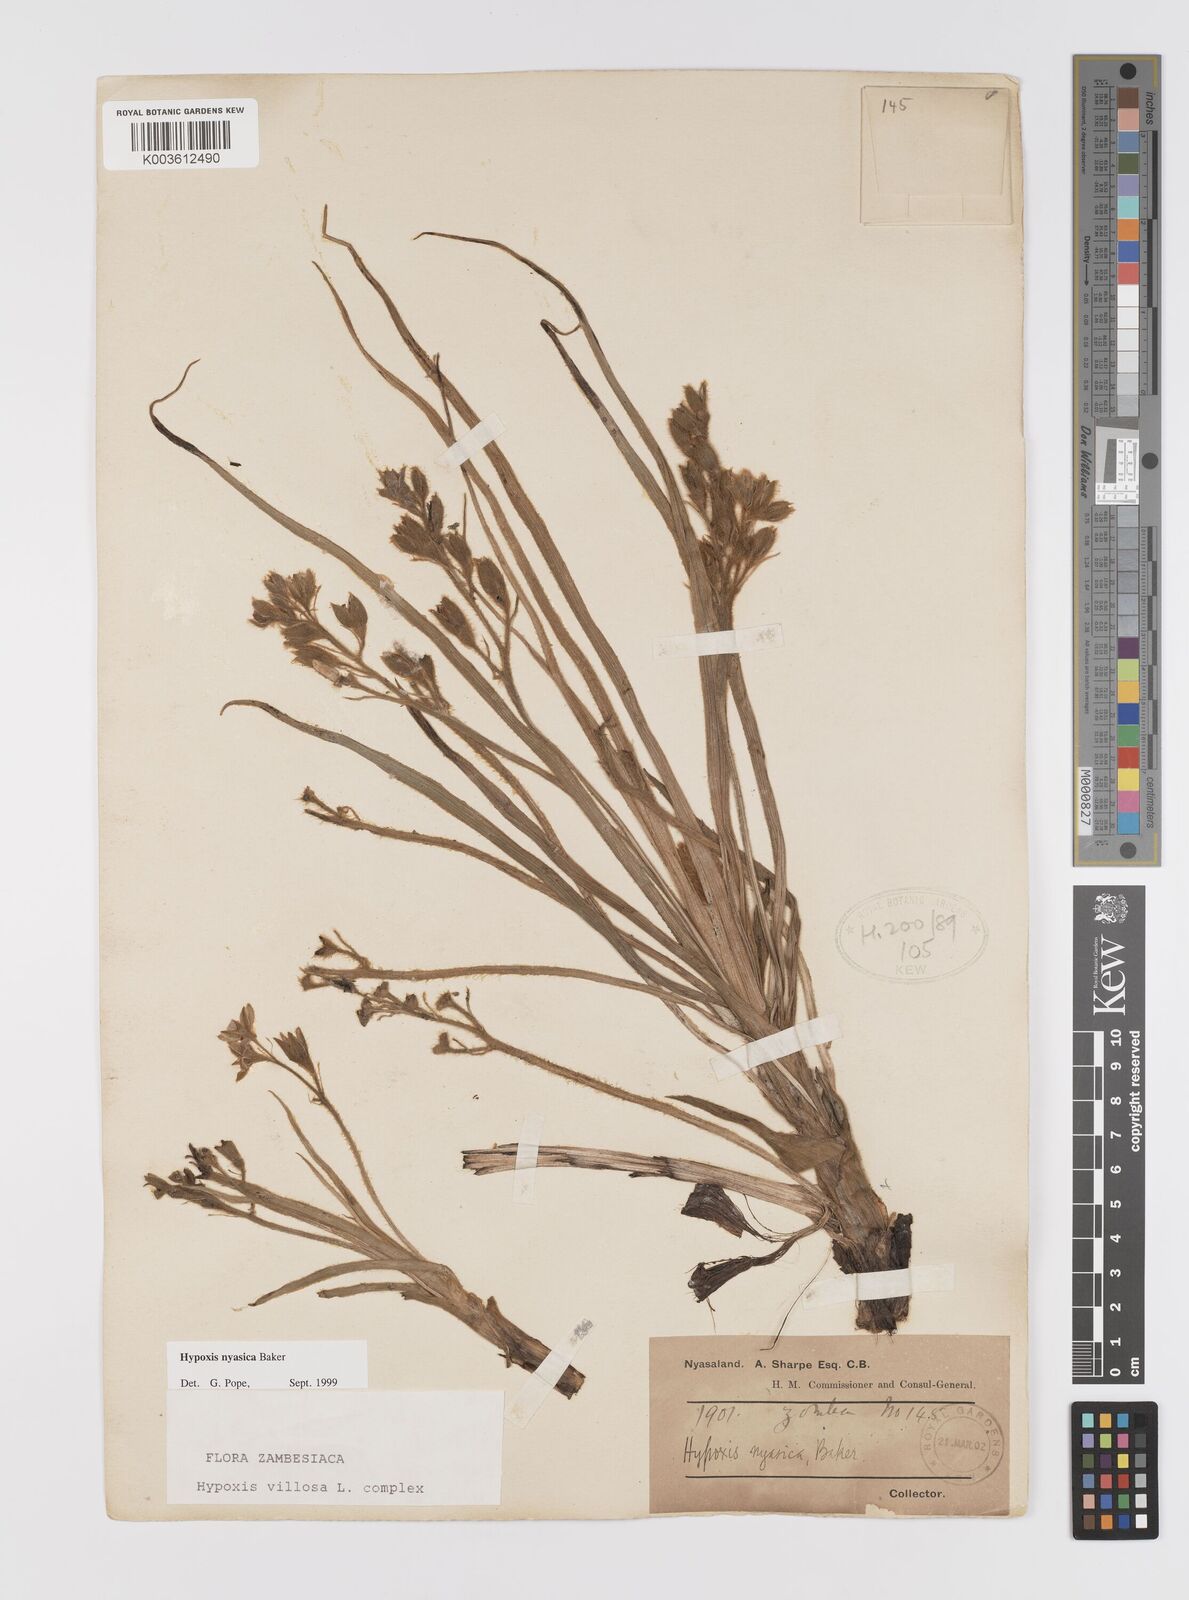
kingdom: Plantae
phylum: Tracheophyta
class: Liliopsida
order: Asparagales
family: Hypoxidaceae
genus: Hypoxis
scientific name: Hypoxis nyasica
